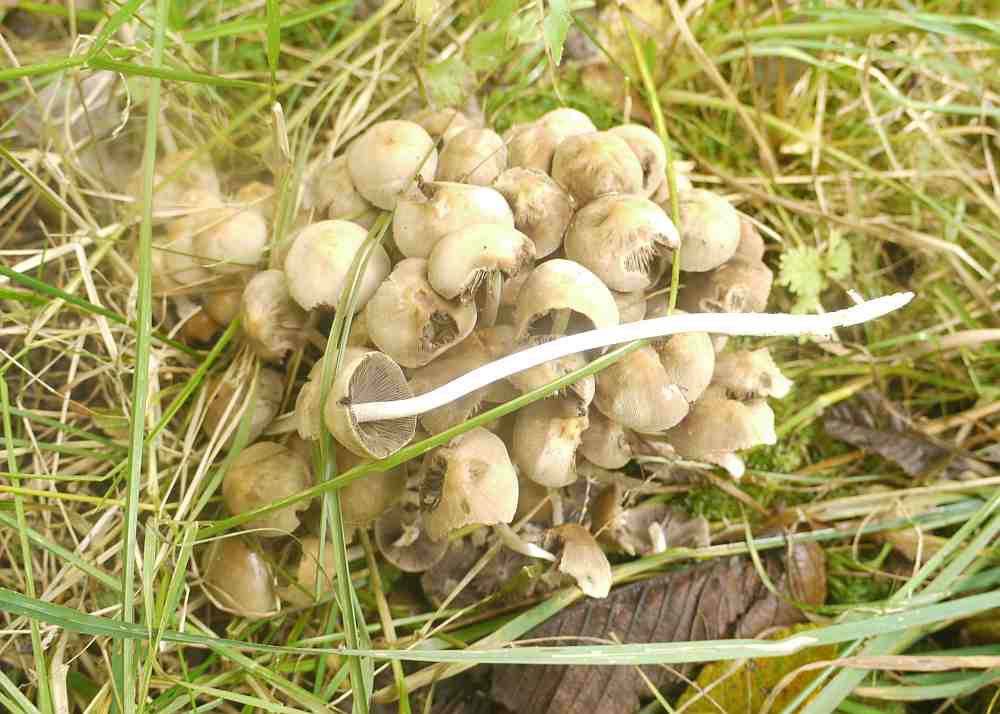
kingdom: Fungi
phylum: Basidiomycota
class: Agaricomycetes
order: Agaricales
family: Psathyrellaceae
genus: Britzelmayria
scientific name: Britzelmayria multipedata
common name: knippe-mørkhat
